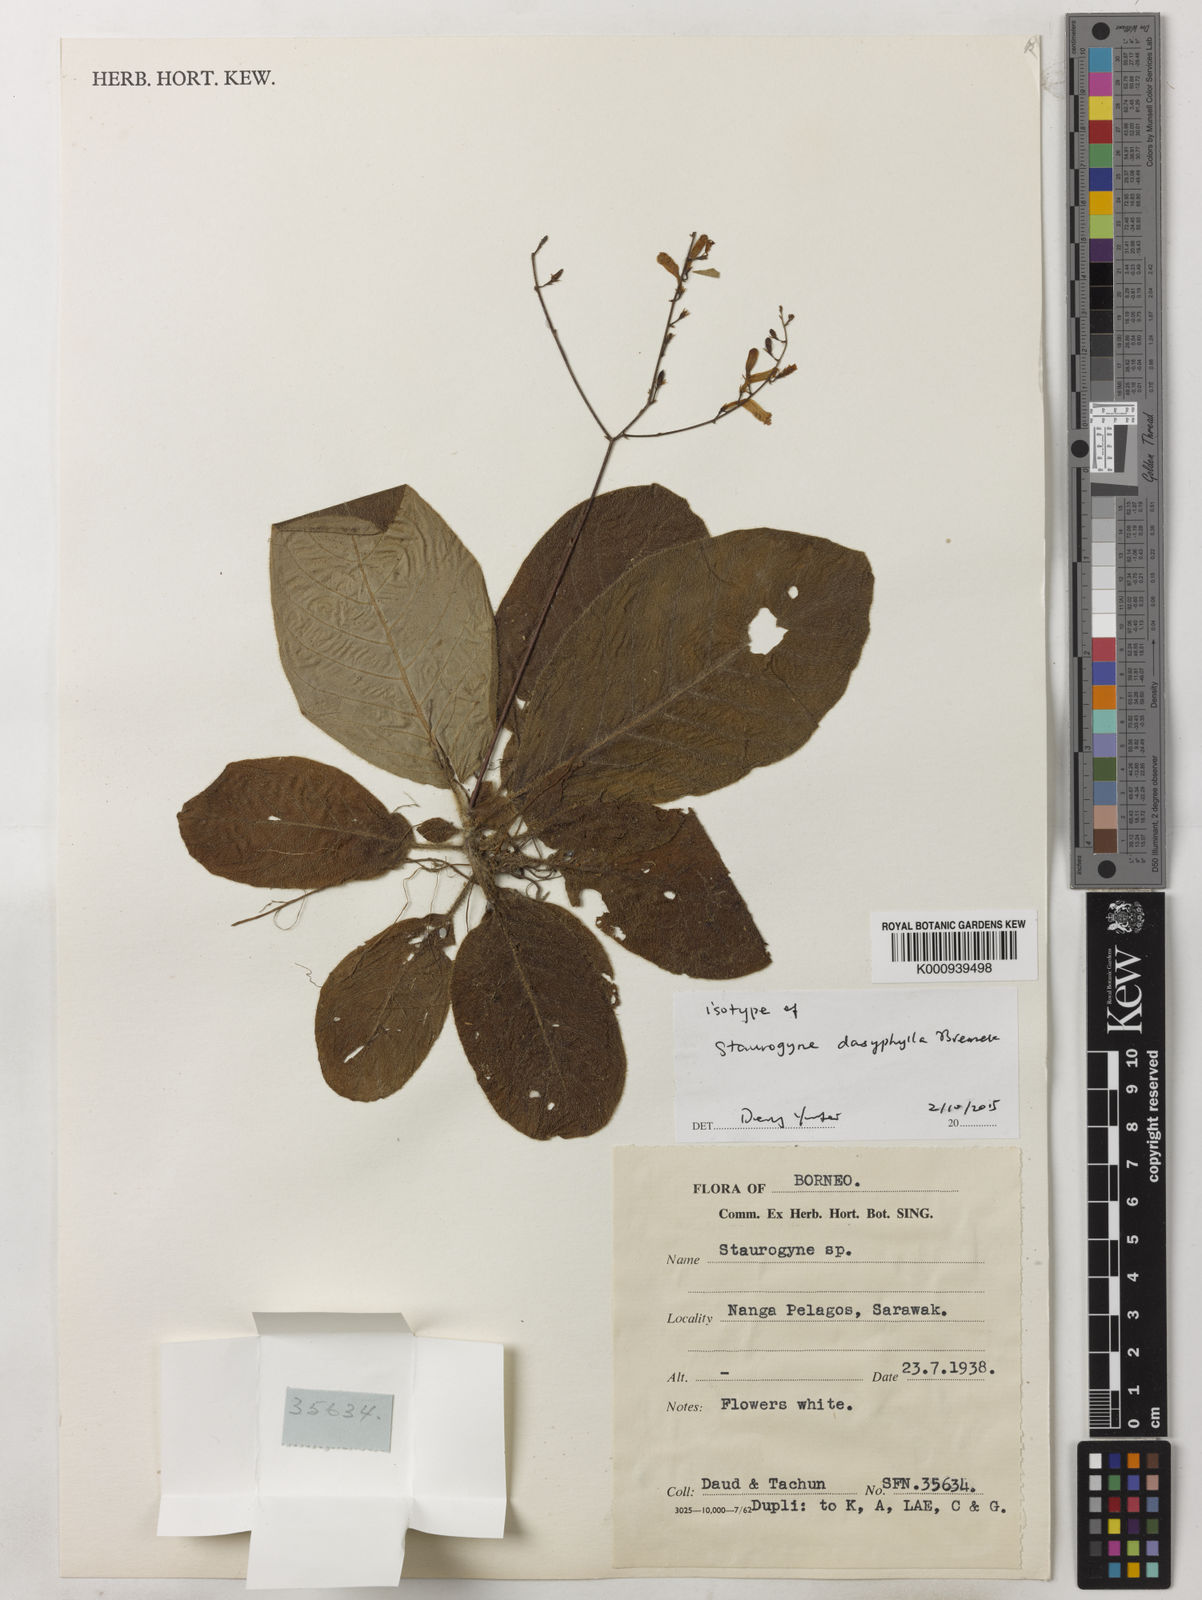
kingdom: Plantae
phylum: Tracheophyta
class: Magnoliopsida
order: Lamiales
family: Acanthaceae
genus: Staurogyne
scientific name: Staurogyne dasyphylla
